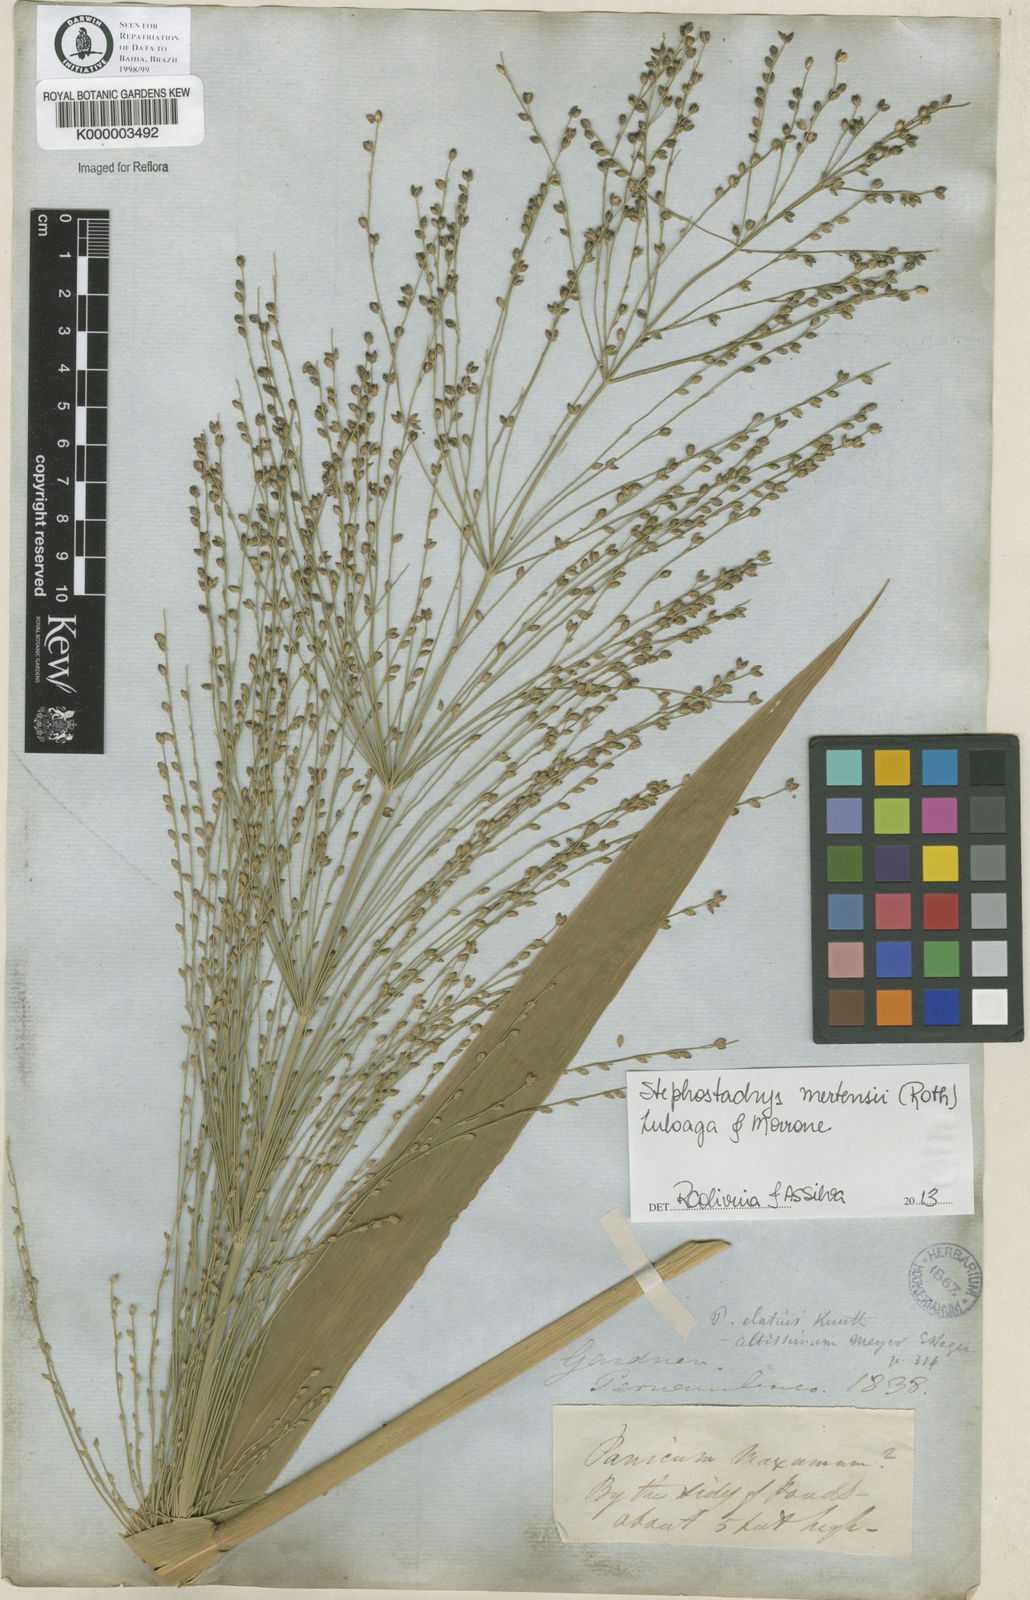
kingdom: Plantae
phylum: Tracheophyta
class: Liliopsida
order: Poales
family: Poaceae
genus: Stephostachys
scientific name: Stephostachys mertensii
